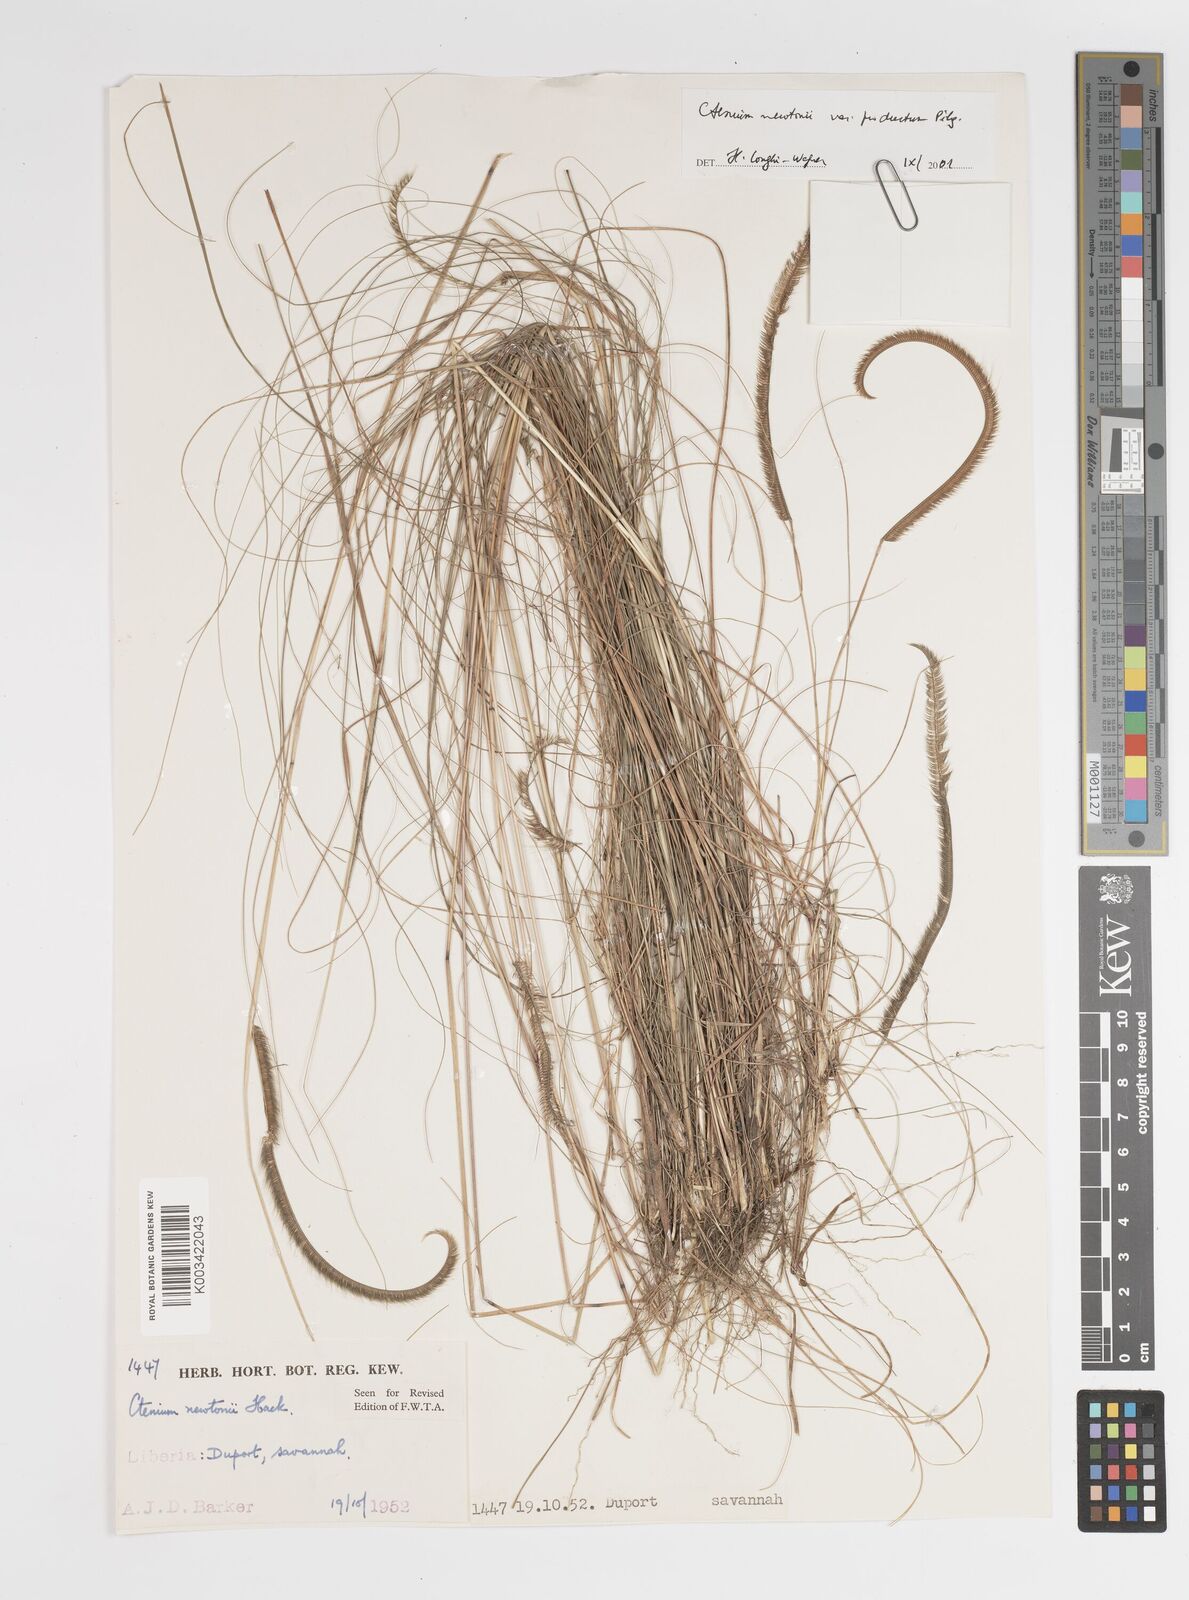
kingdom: Plantae
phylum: Tracheophyta
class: Liliopsida
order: Poales
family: Poaceae
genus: Ctenium
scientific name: Ctenium newtonii
